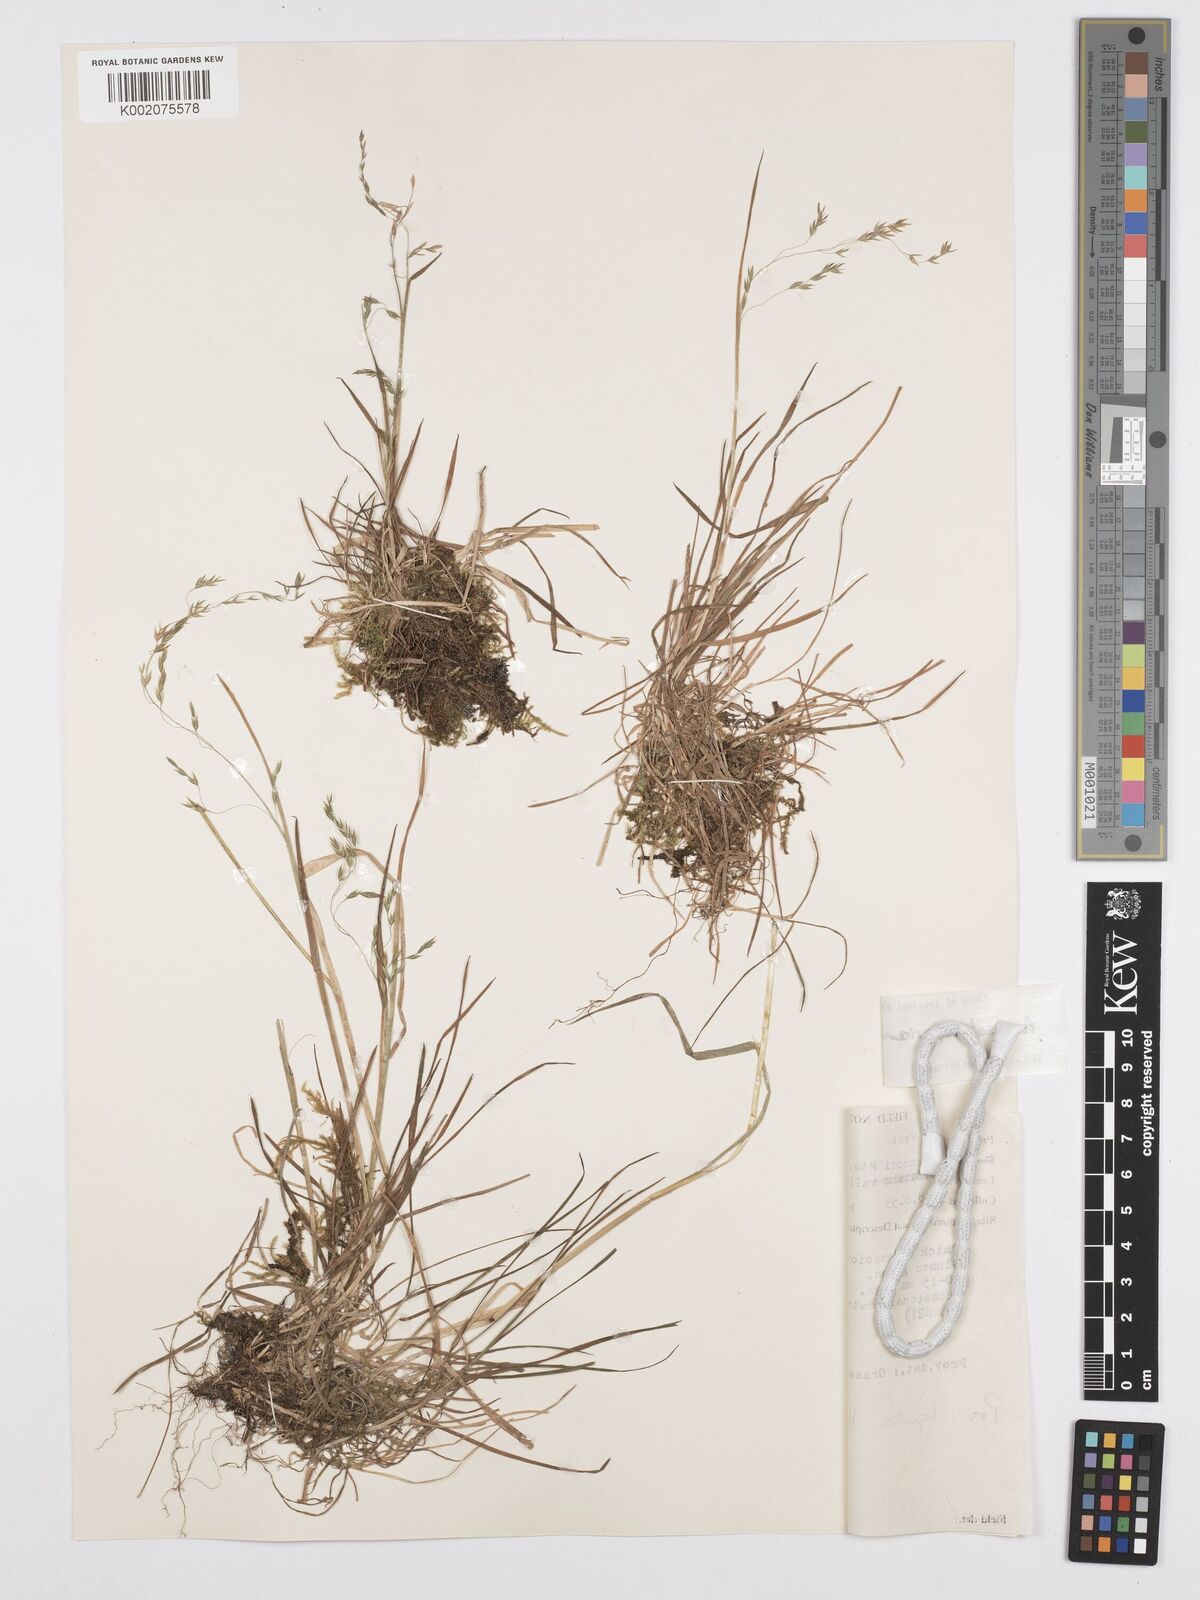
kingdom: Plantae
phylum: Tracheophyta
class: Liliopsida
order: Poales
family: Poaceae
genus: Poa
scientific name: Poa schimperiana
